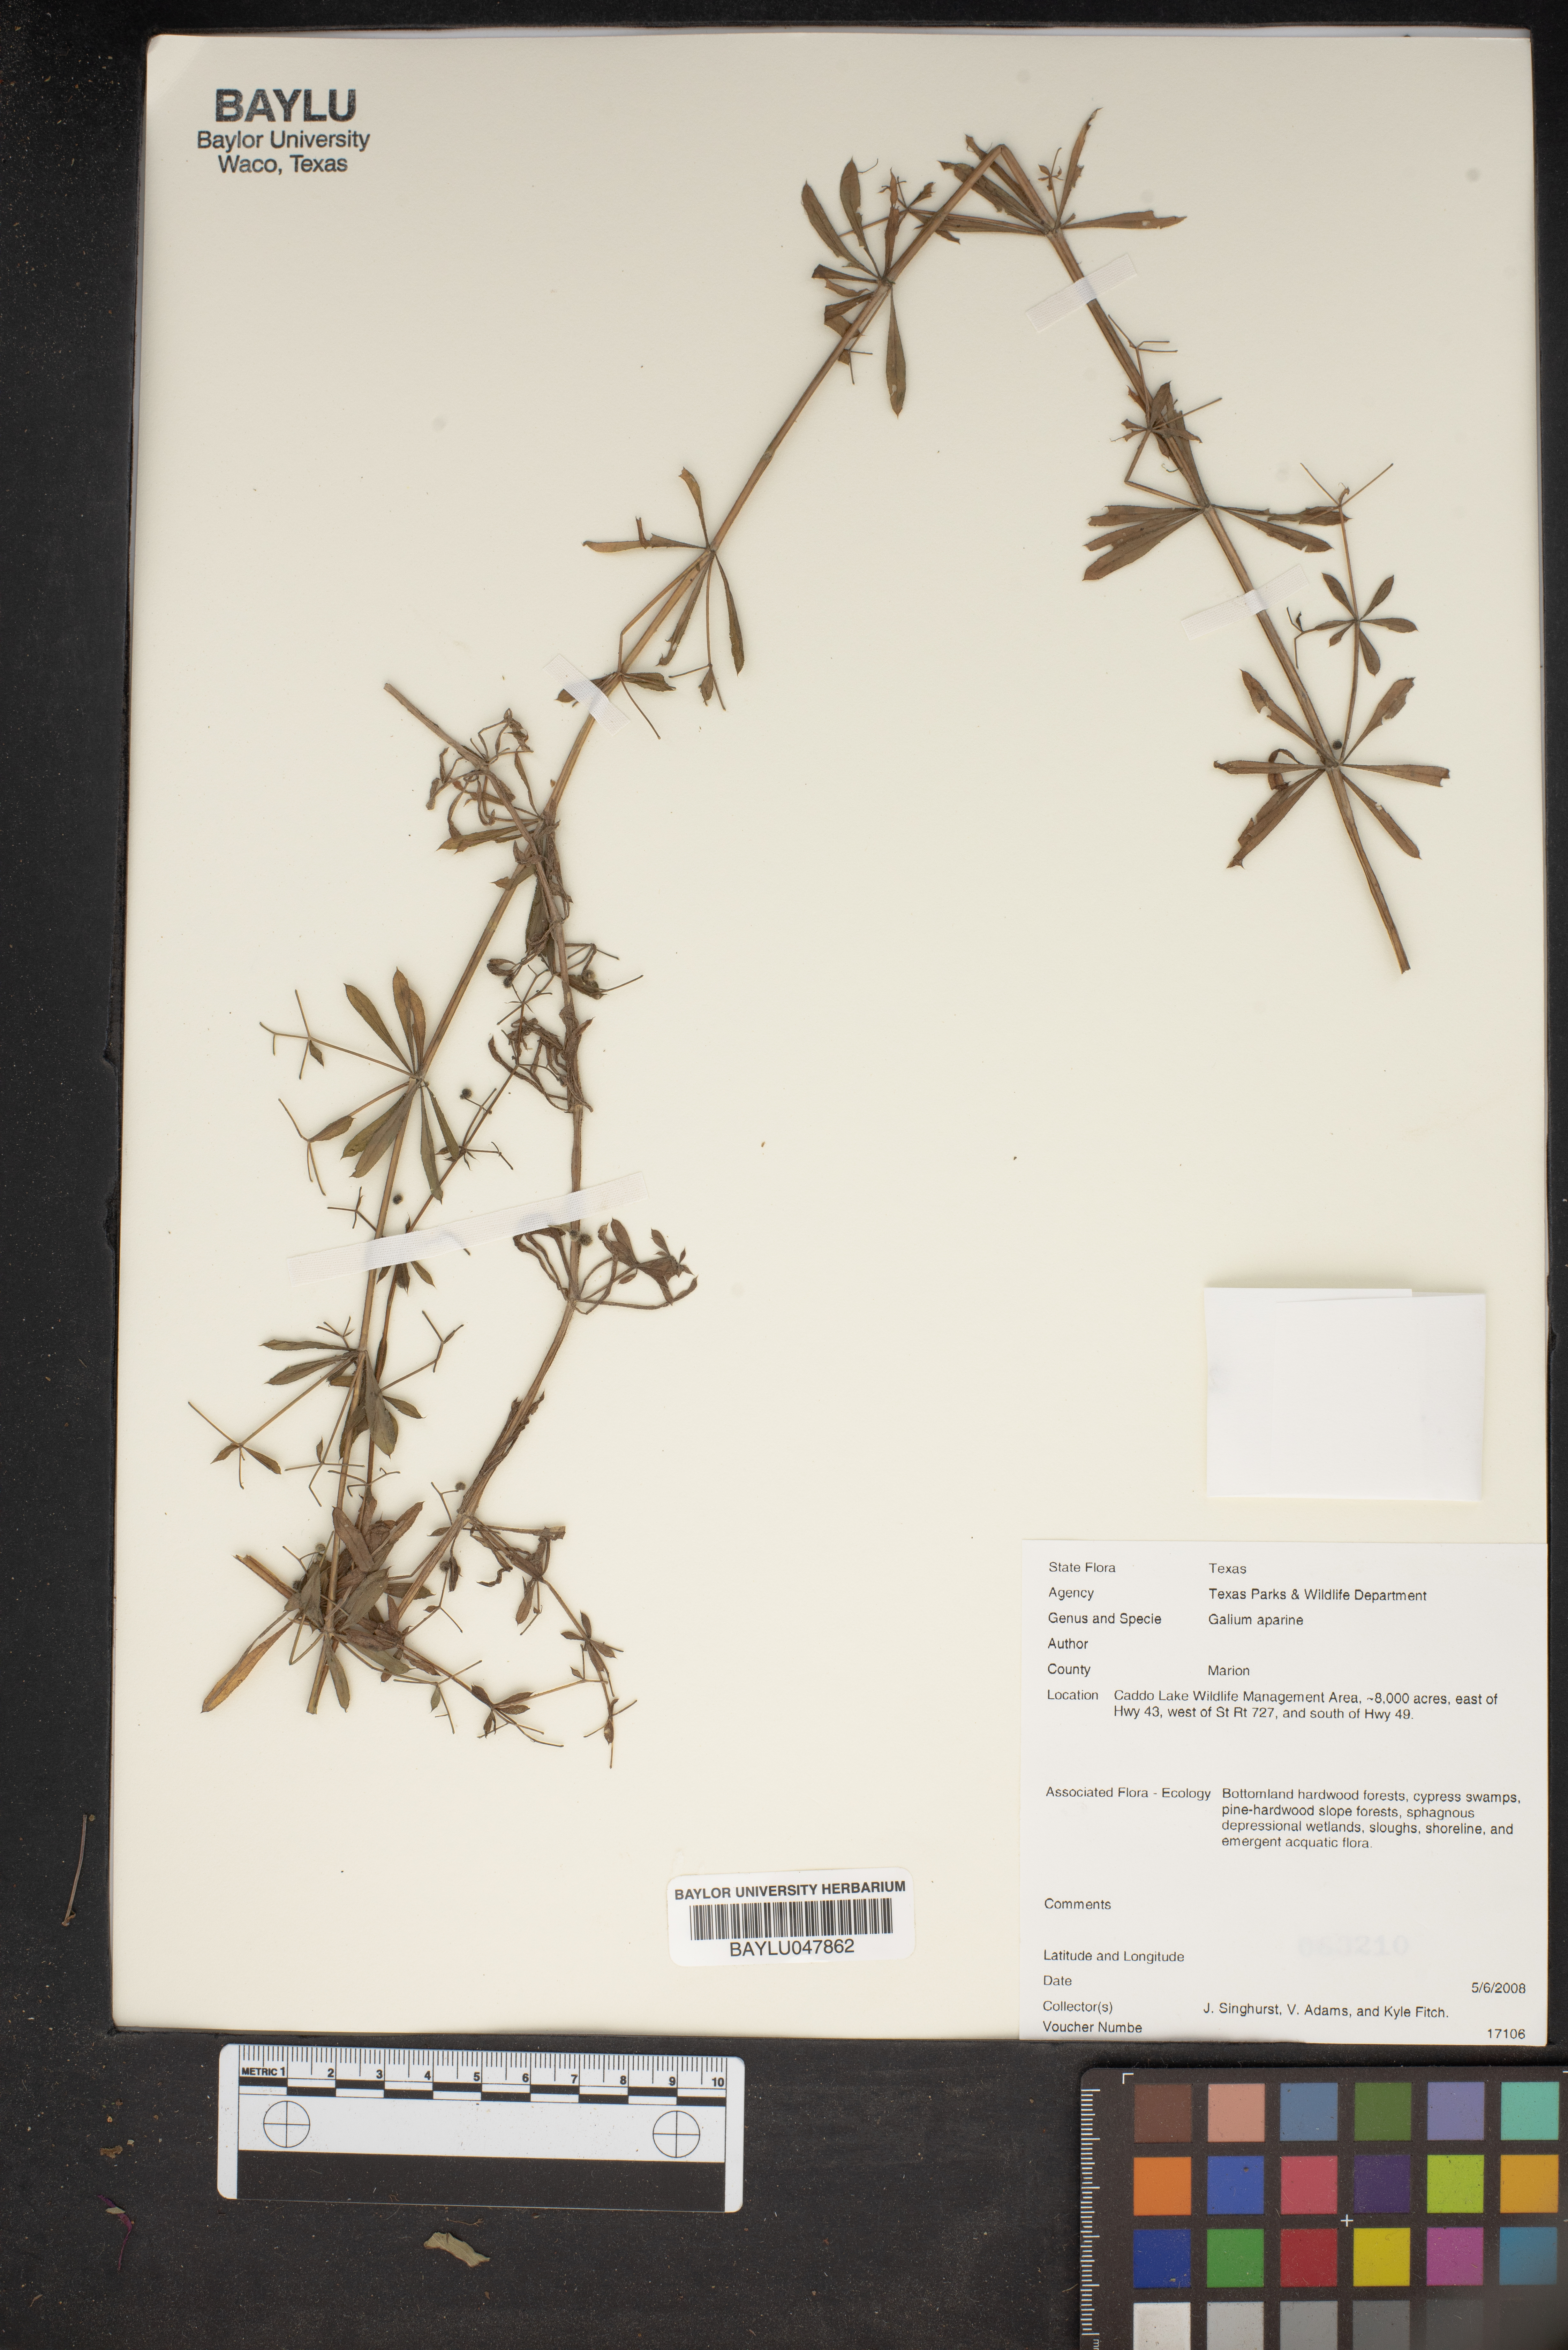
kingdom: Plantae
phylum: Tracheophyta
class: Magnoliopsida
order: Gentianales
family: Rubiaceae
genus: Galium
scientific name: Galium aparine
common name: Cleavers
